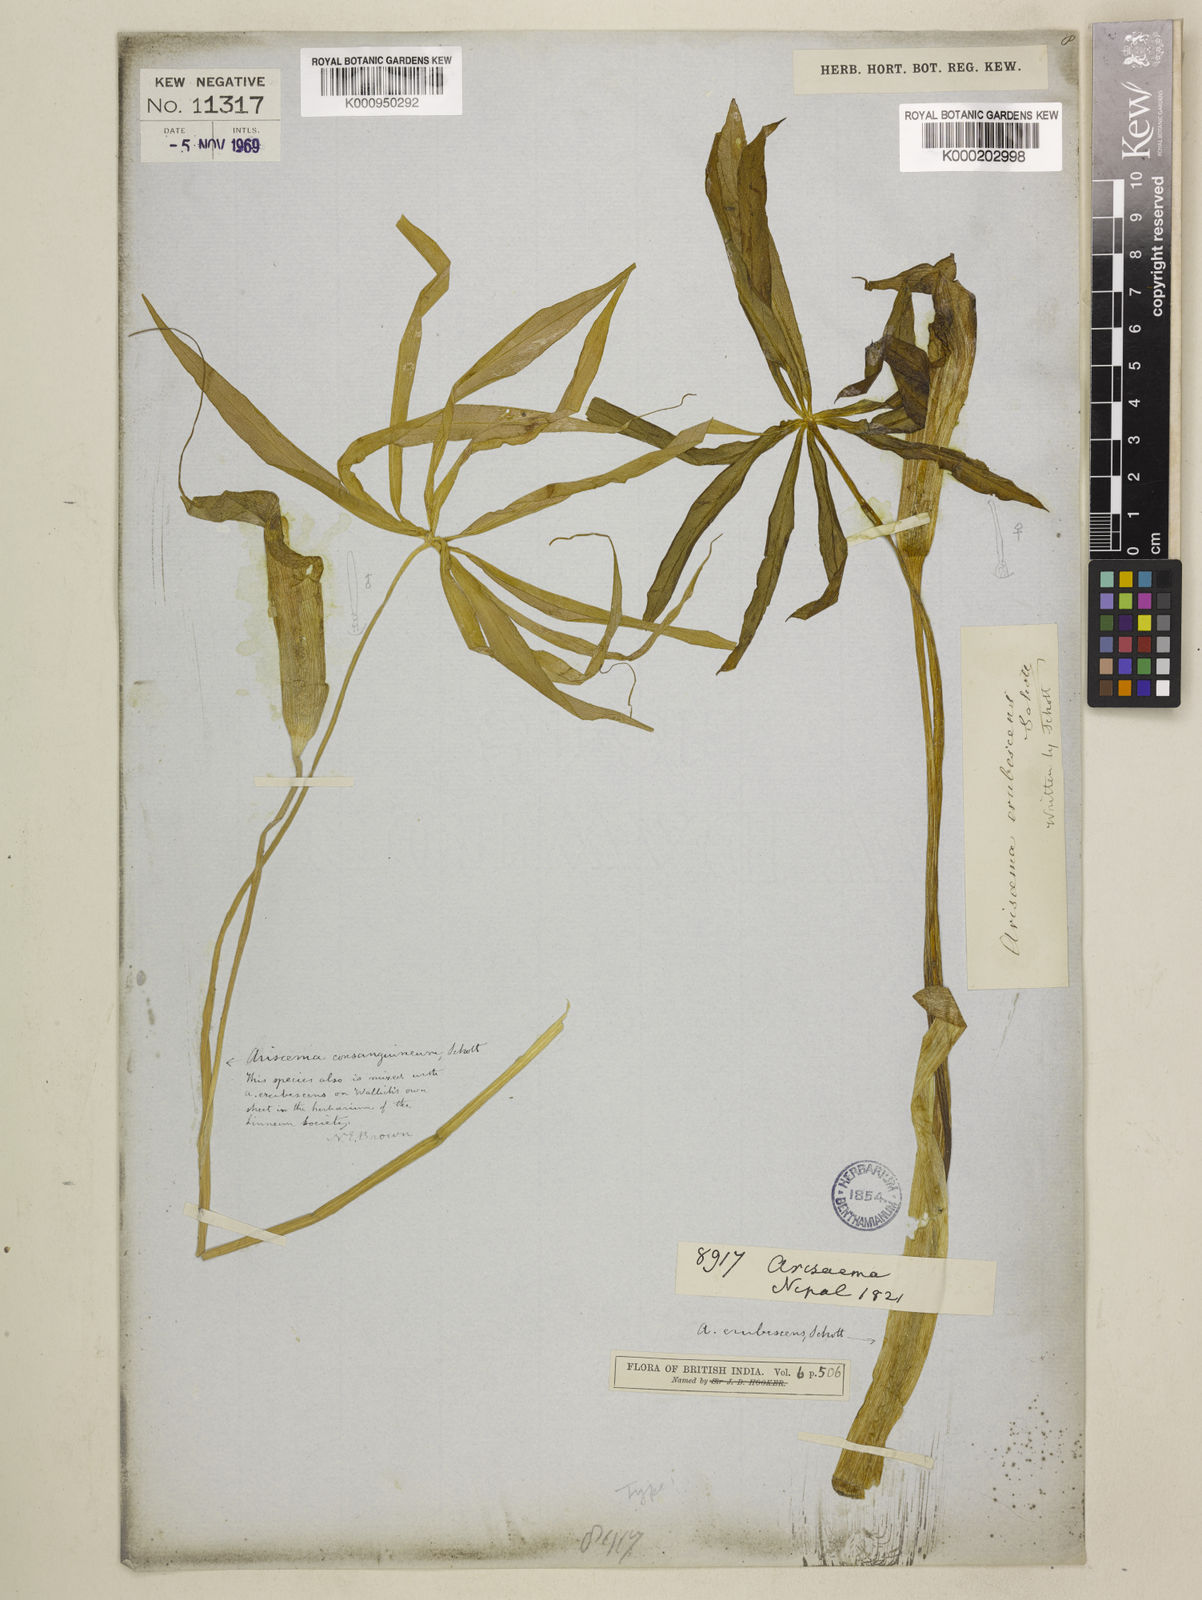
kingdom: Plantae
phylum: Tracheophyta
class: Liliopsida
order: Alismatales
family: Araceae
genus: Arisaema
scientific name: Arisaema erubescens
